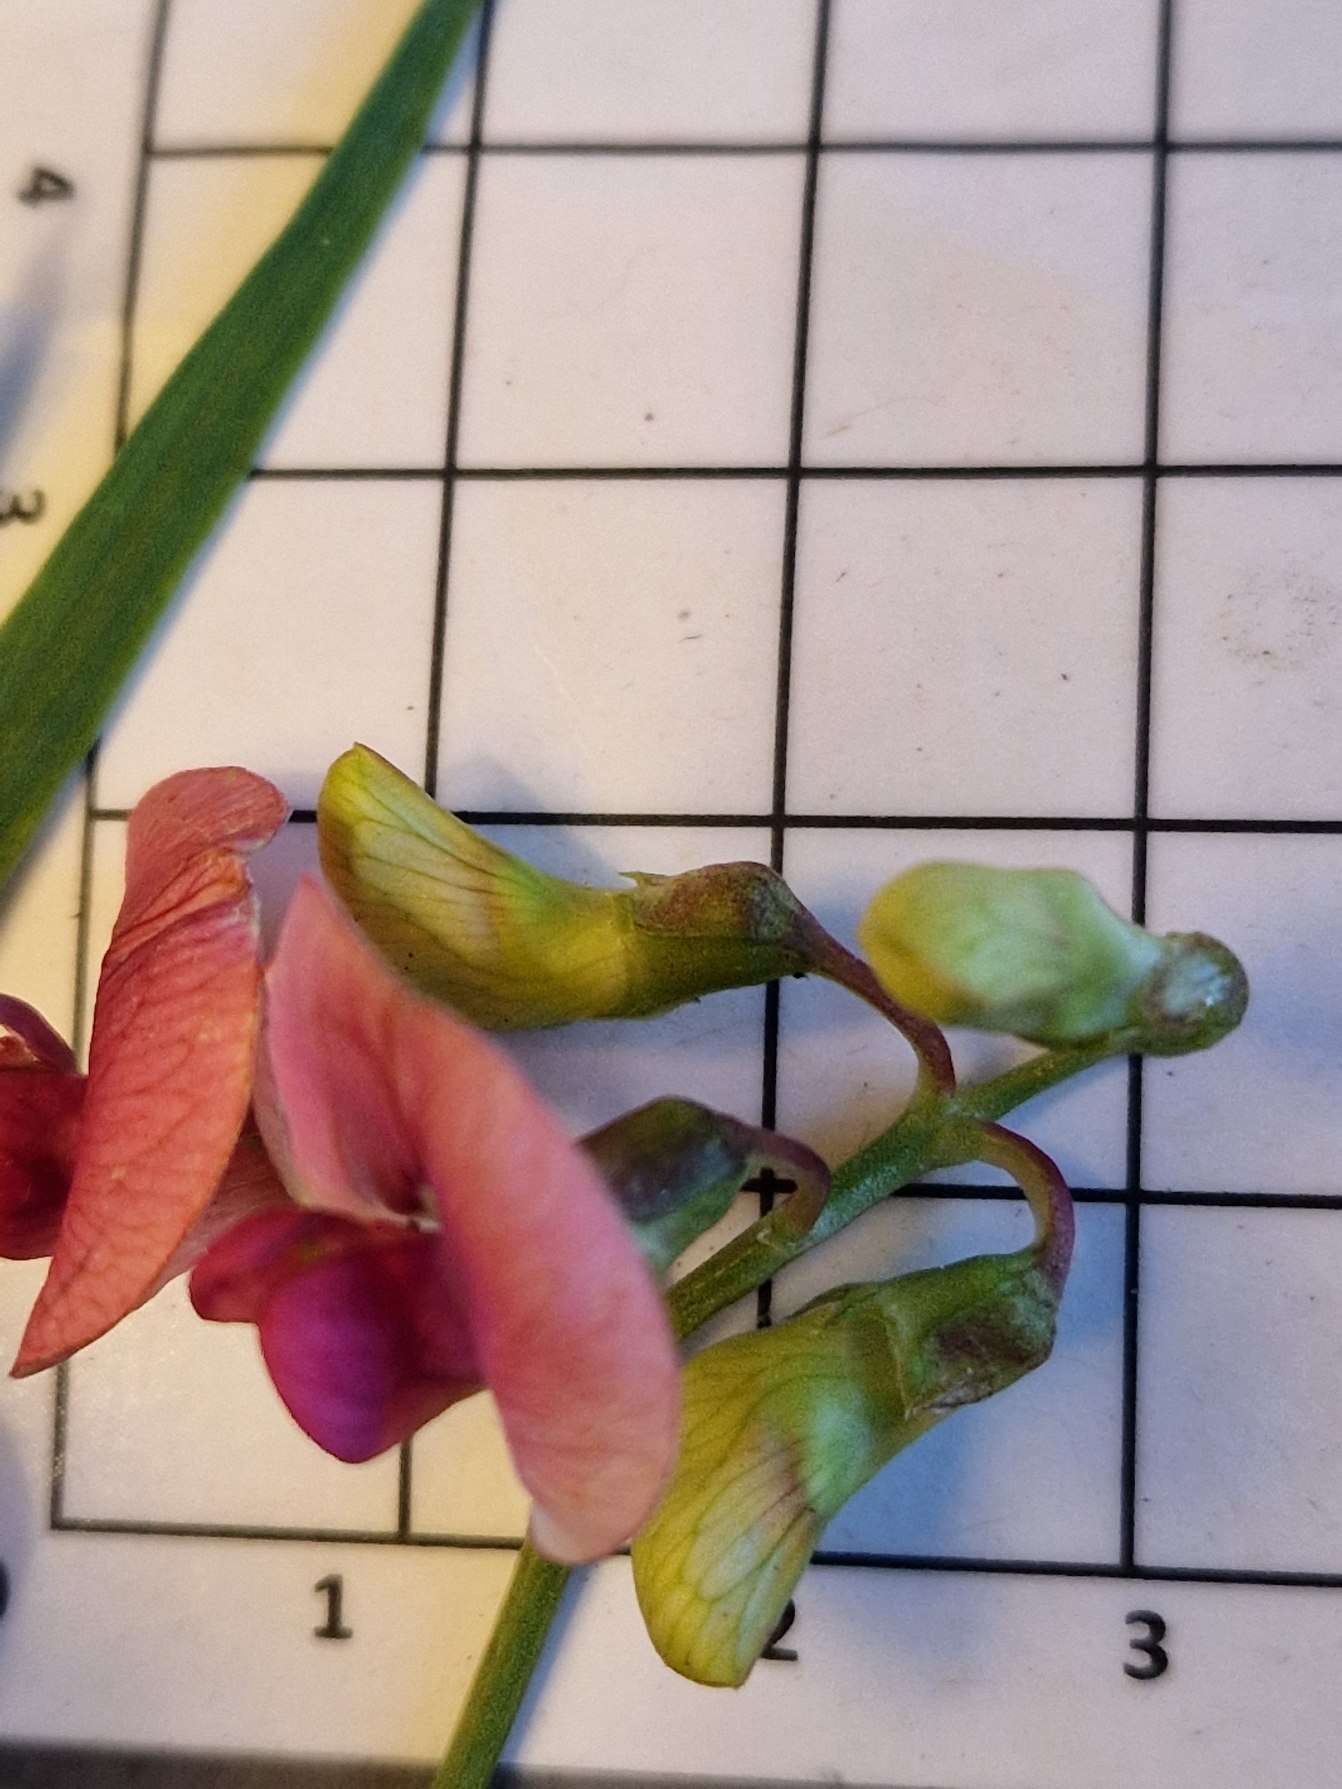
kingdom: Plantae
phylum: Tracheophyta
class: Magnoliopsida
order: Fabales
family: Fabaceae
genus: Lathyrus
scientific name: Lathyrus sylvestris
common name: Skov-fladbælg
